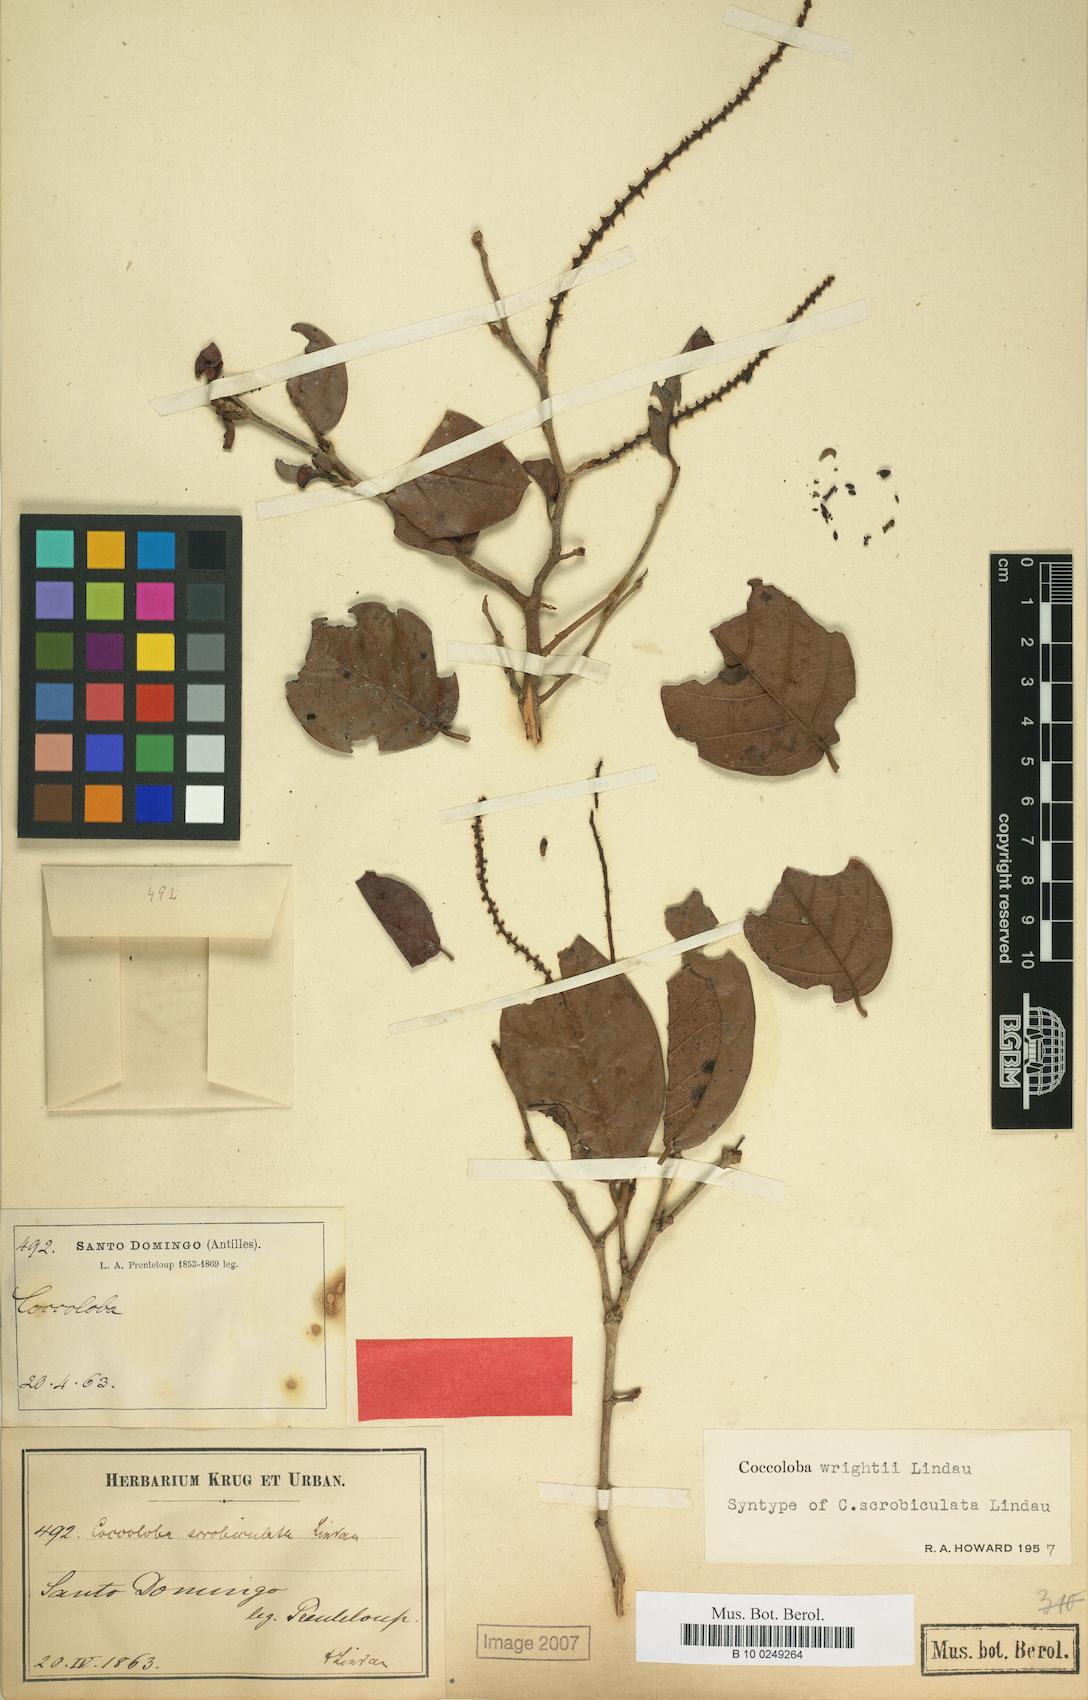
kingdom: Plantae
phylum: Tracheophyta
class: Magnoliopsida
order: Caryophyllales
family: Polygonaceae
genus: Coccoloba
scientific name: Coccoloba wrightii
